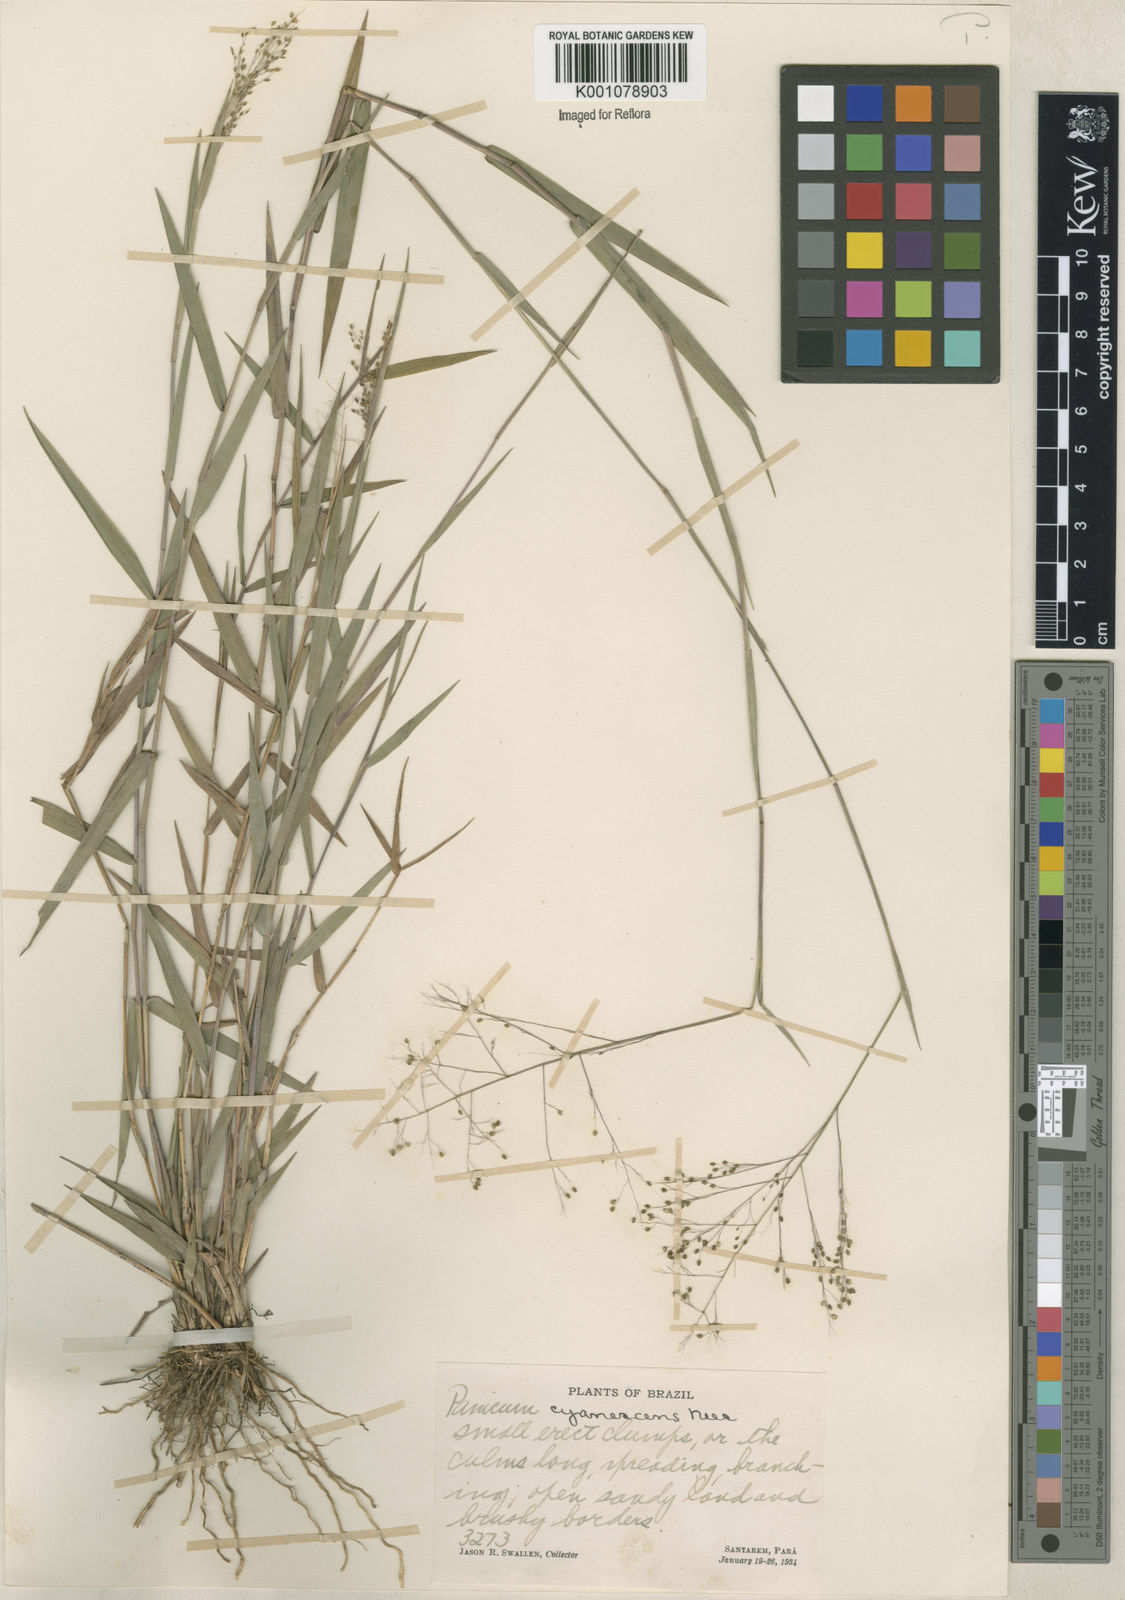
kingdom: Plantae
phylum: Tracheophyta
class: Liliopsida
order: Poales
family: Poaceae
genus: Trichanthecium
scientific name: Trichanthecium cyanescens
